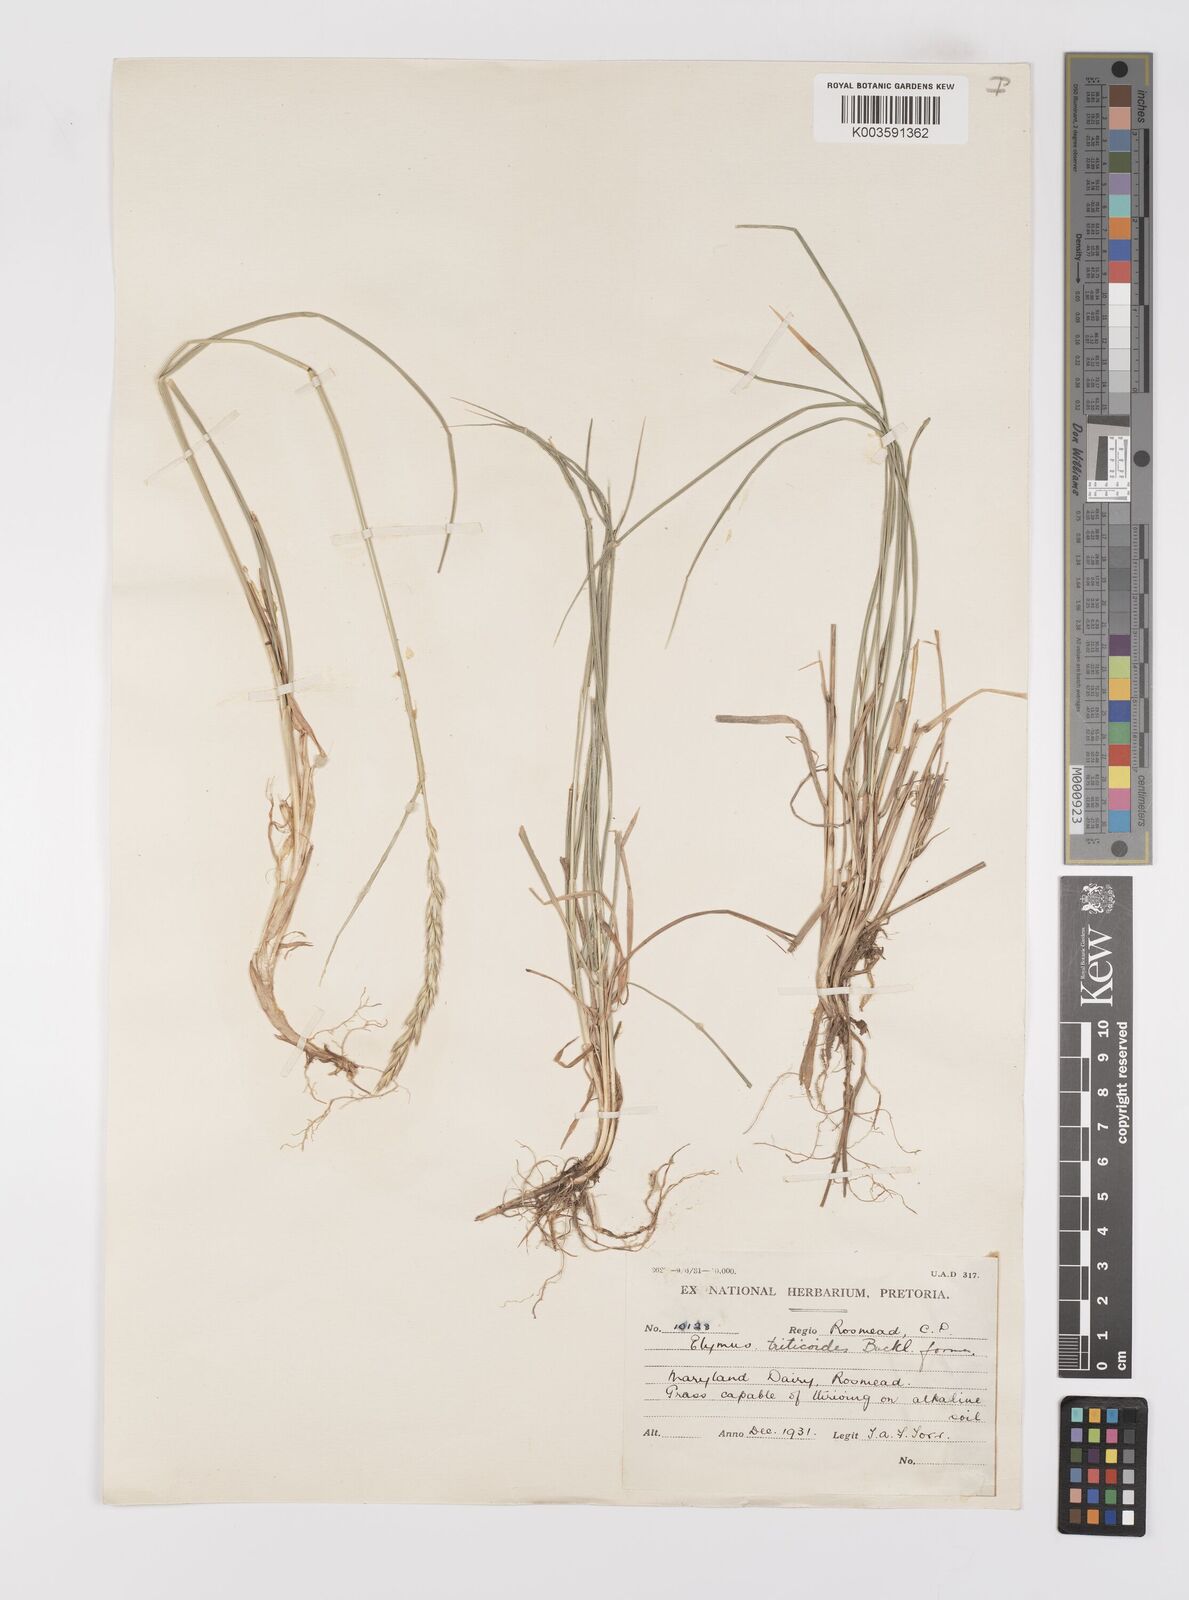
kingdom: Plantae
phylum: Tracheophyta
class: Liliopsida
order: Poales
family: Poaceae
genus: Leymus
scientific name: Leymus
